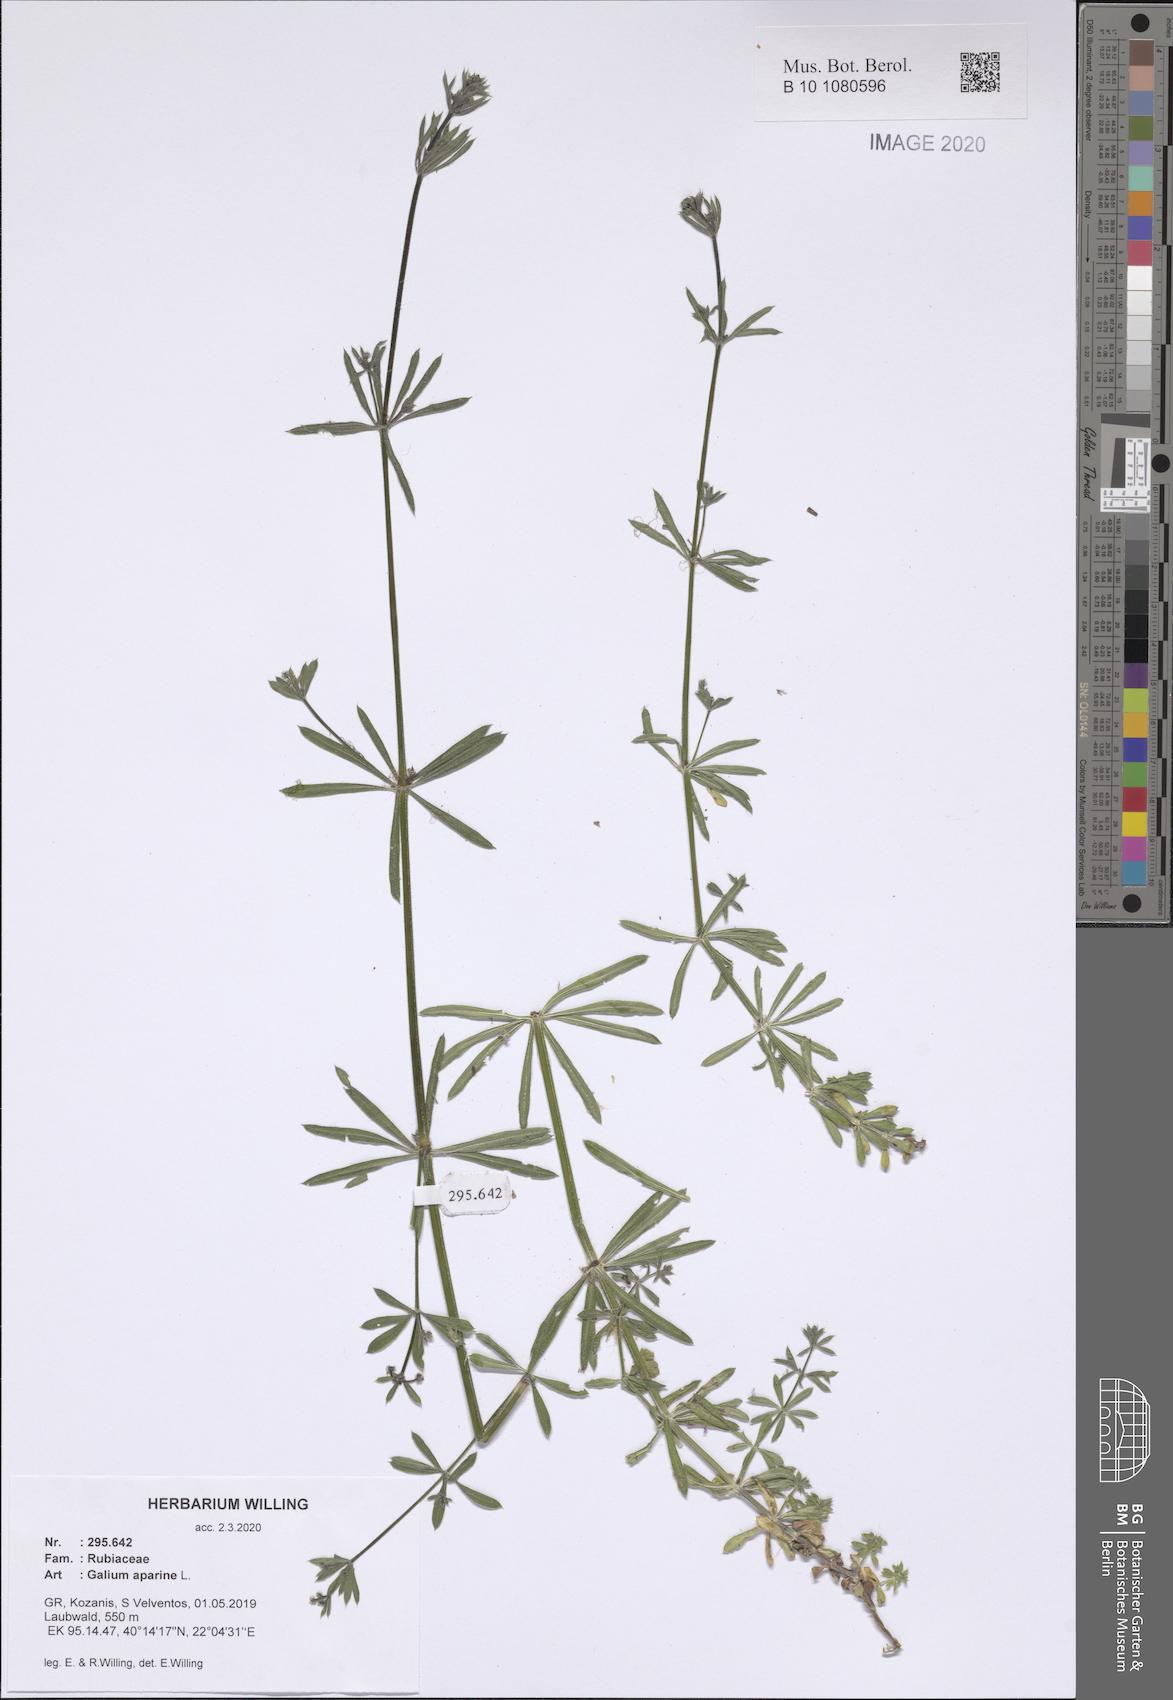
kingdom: Plantae
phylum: Tracheophyta
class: Magnoliopsida
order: Gentianales
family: Rubiaceae
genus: Galium
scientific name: Galium aparine
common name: Cleavers
